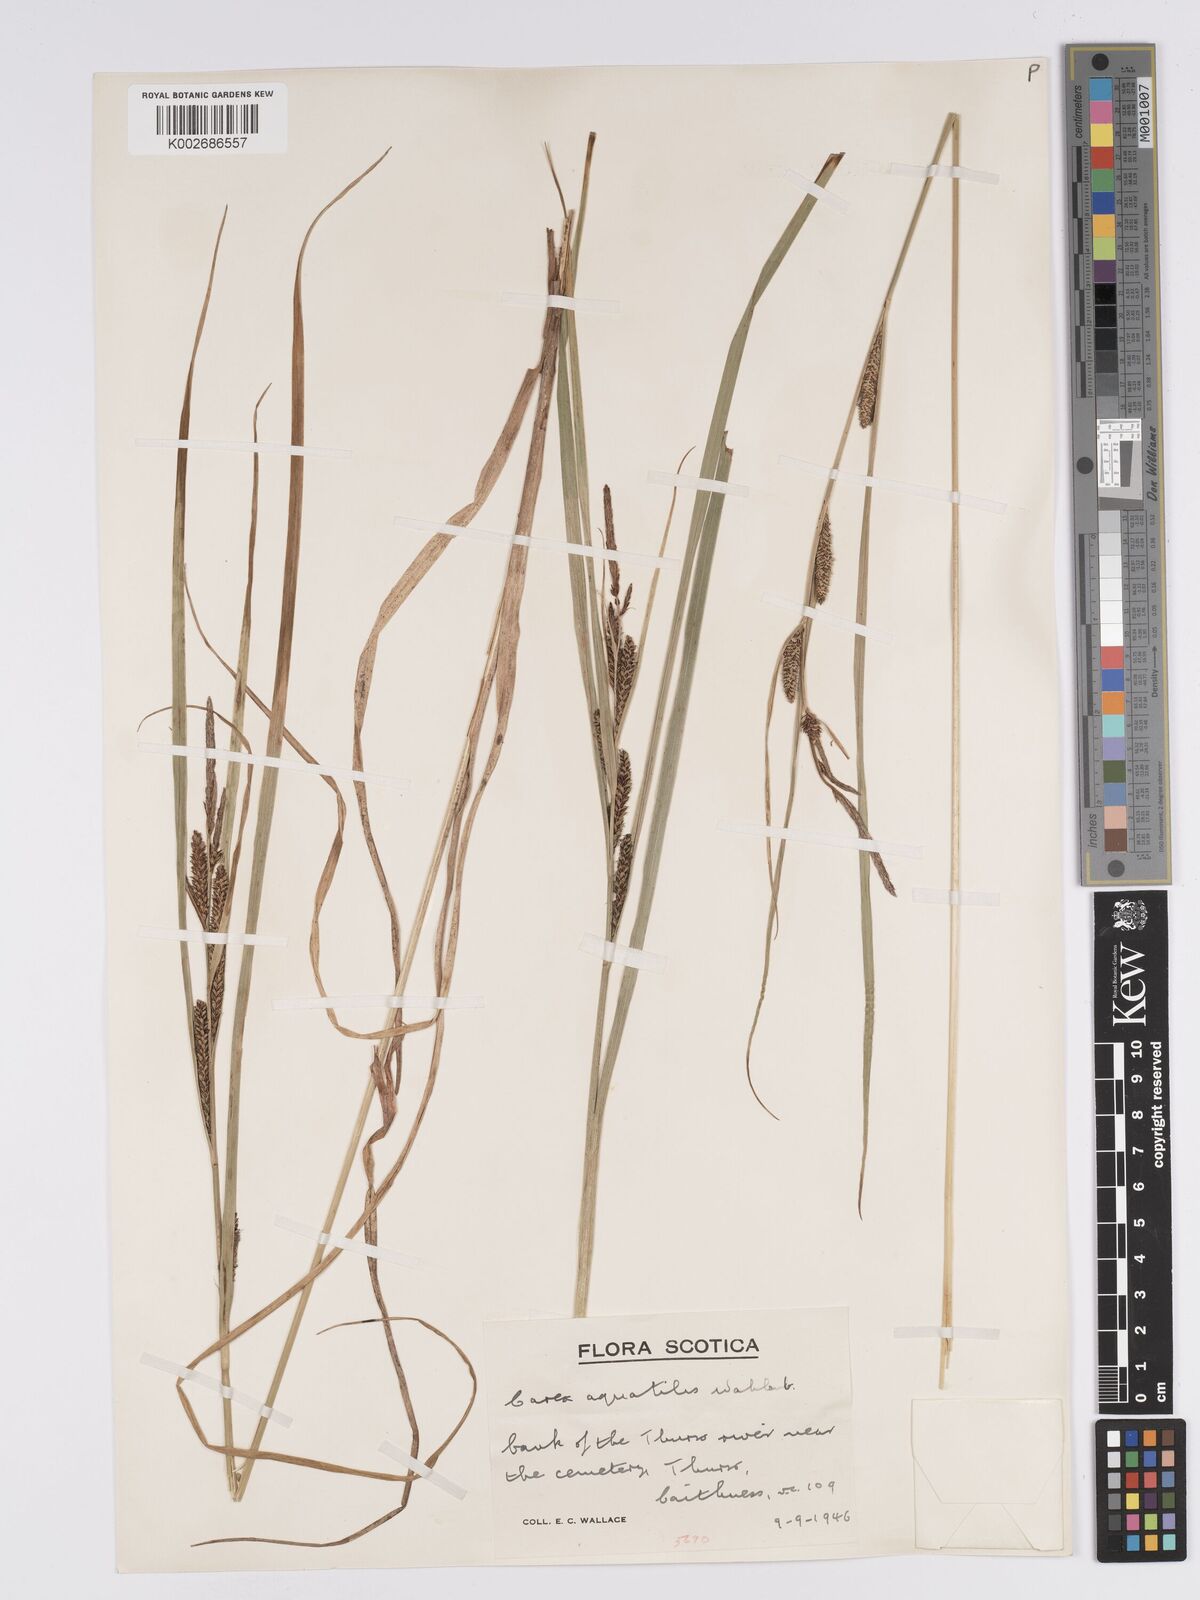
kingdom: Plantae
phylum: Tracheophyta
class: Liliopsida
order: Poales
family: Cyperaceae
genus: Carex
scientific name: Carex aquatilis
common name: Water sedge
